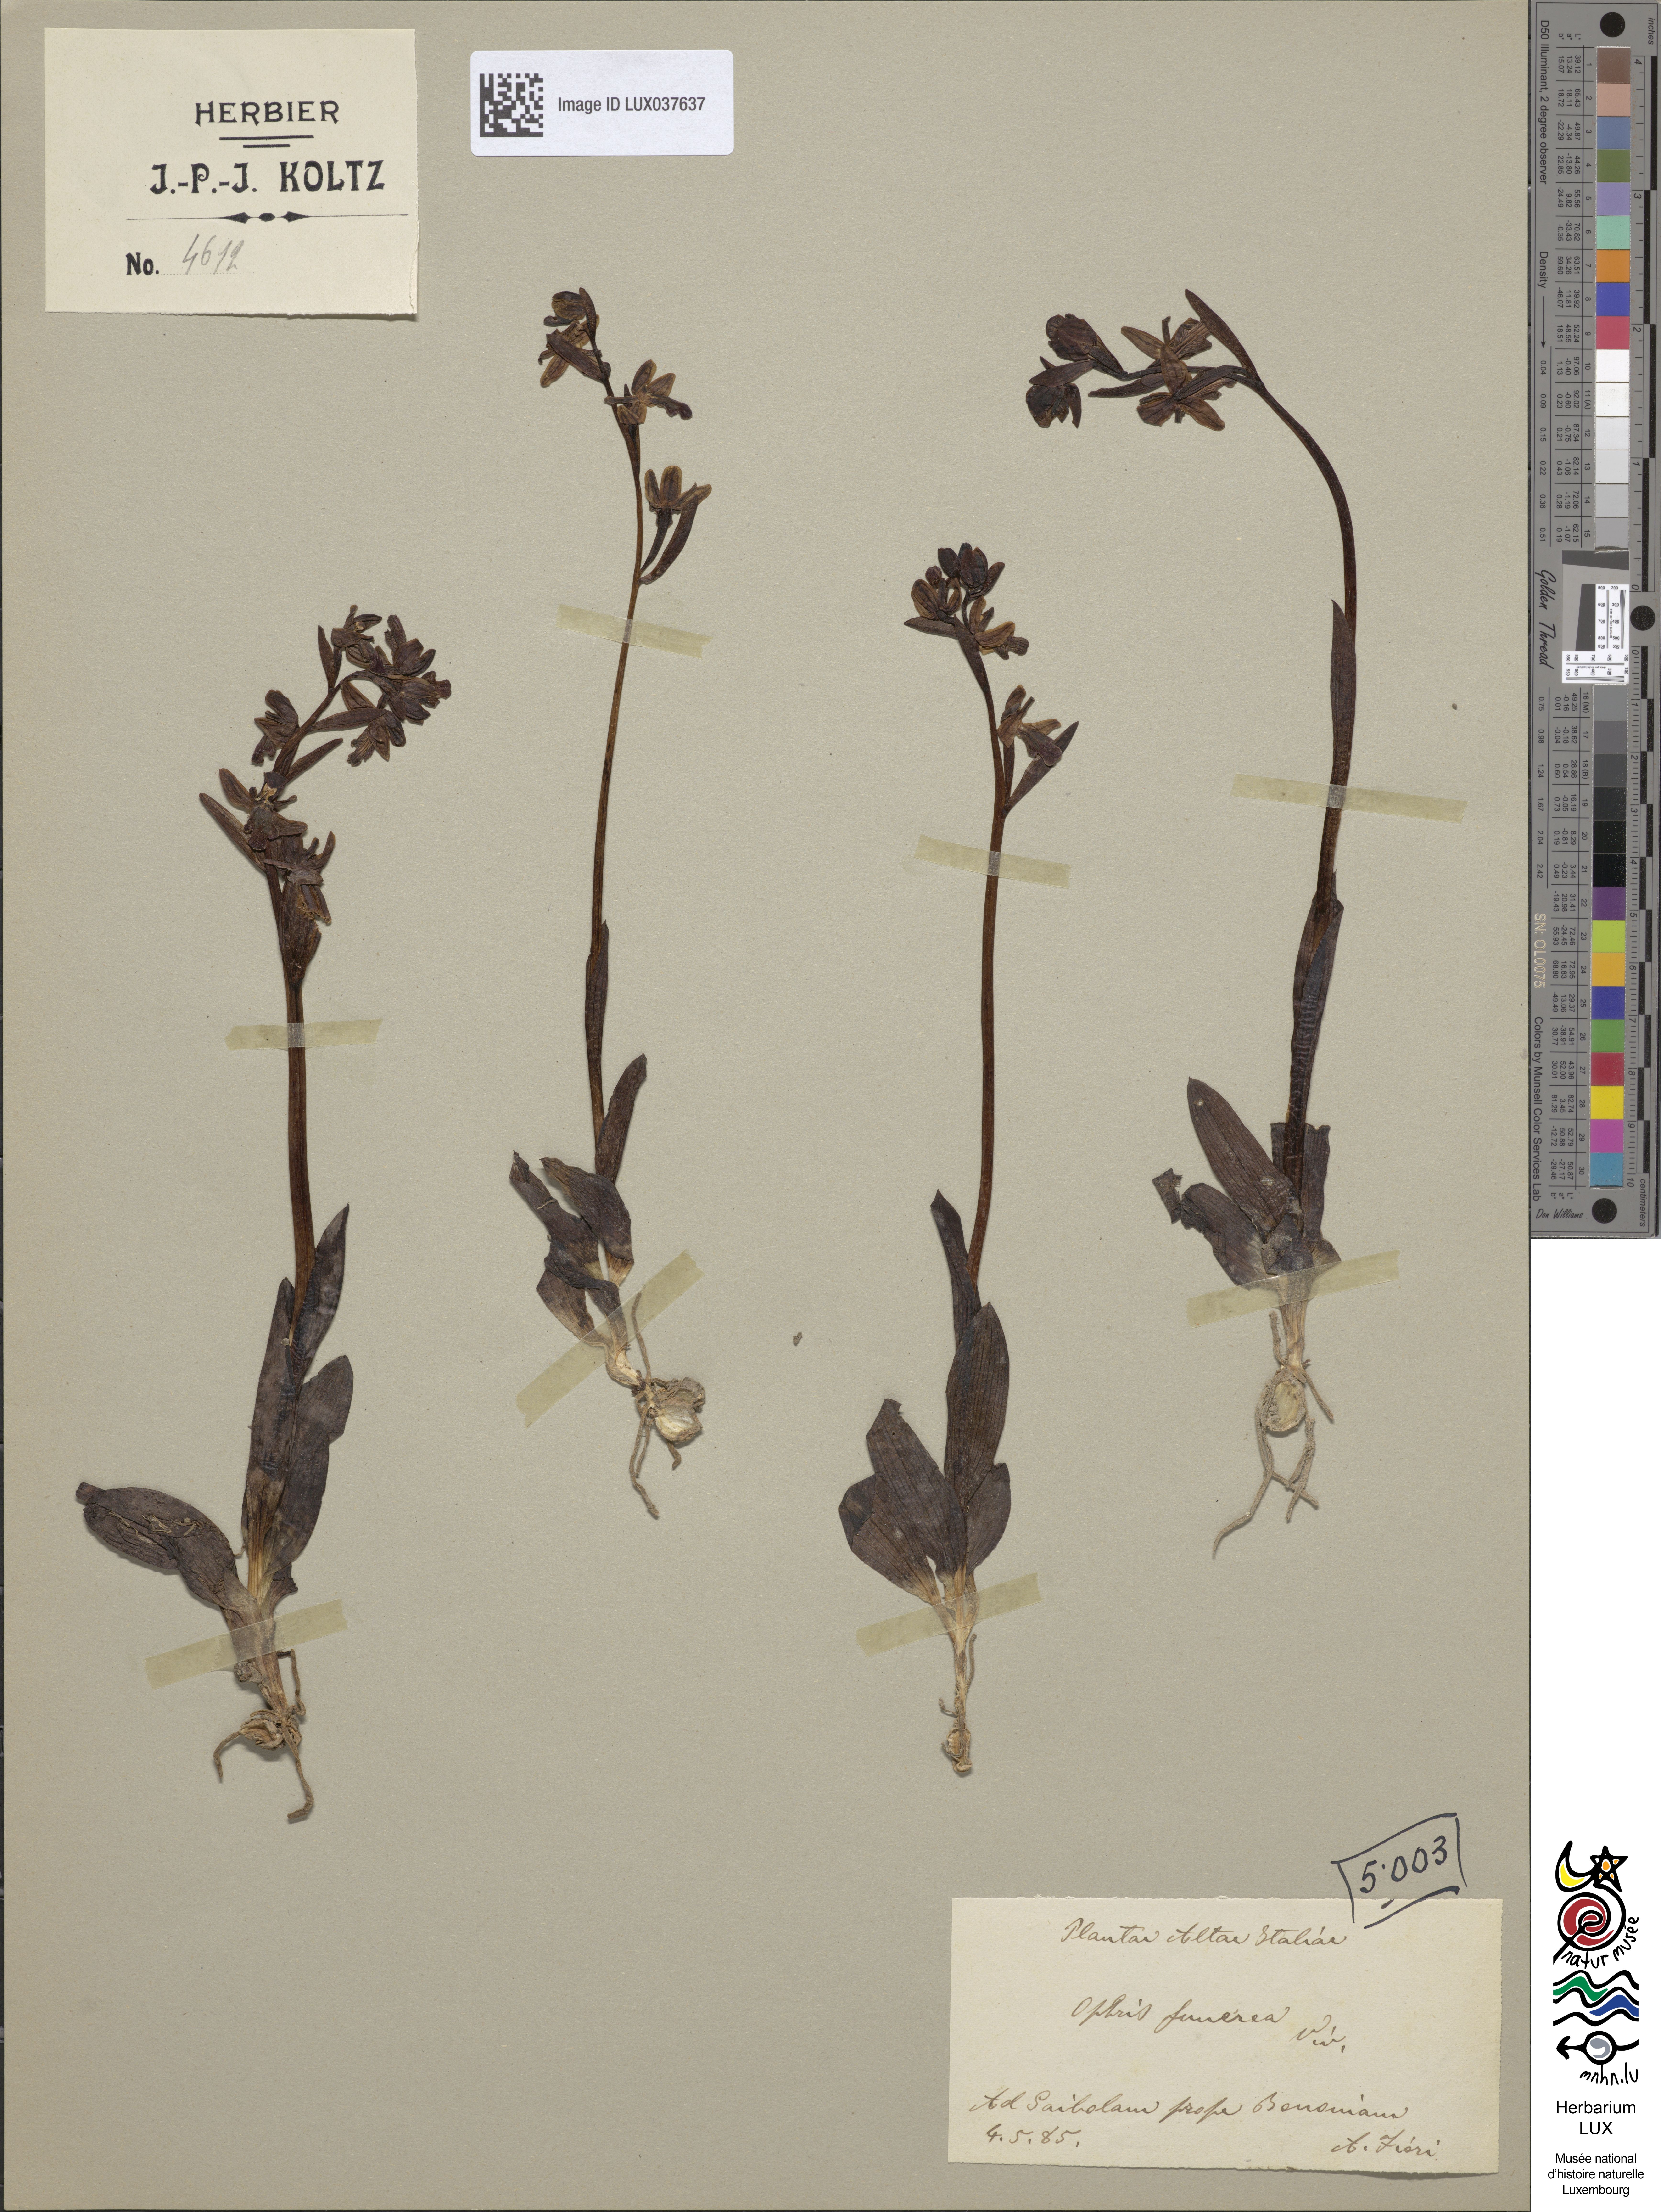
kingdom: Plantae
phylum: Tracheophyta
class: Liliopsida
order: Asparagales
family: Orchidaceae
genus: Ophrys
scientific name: Ophrys fusca
